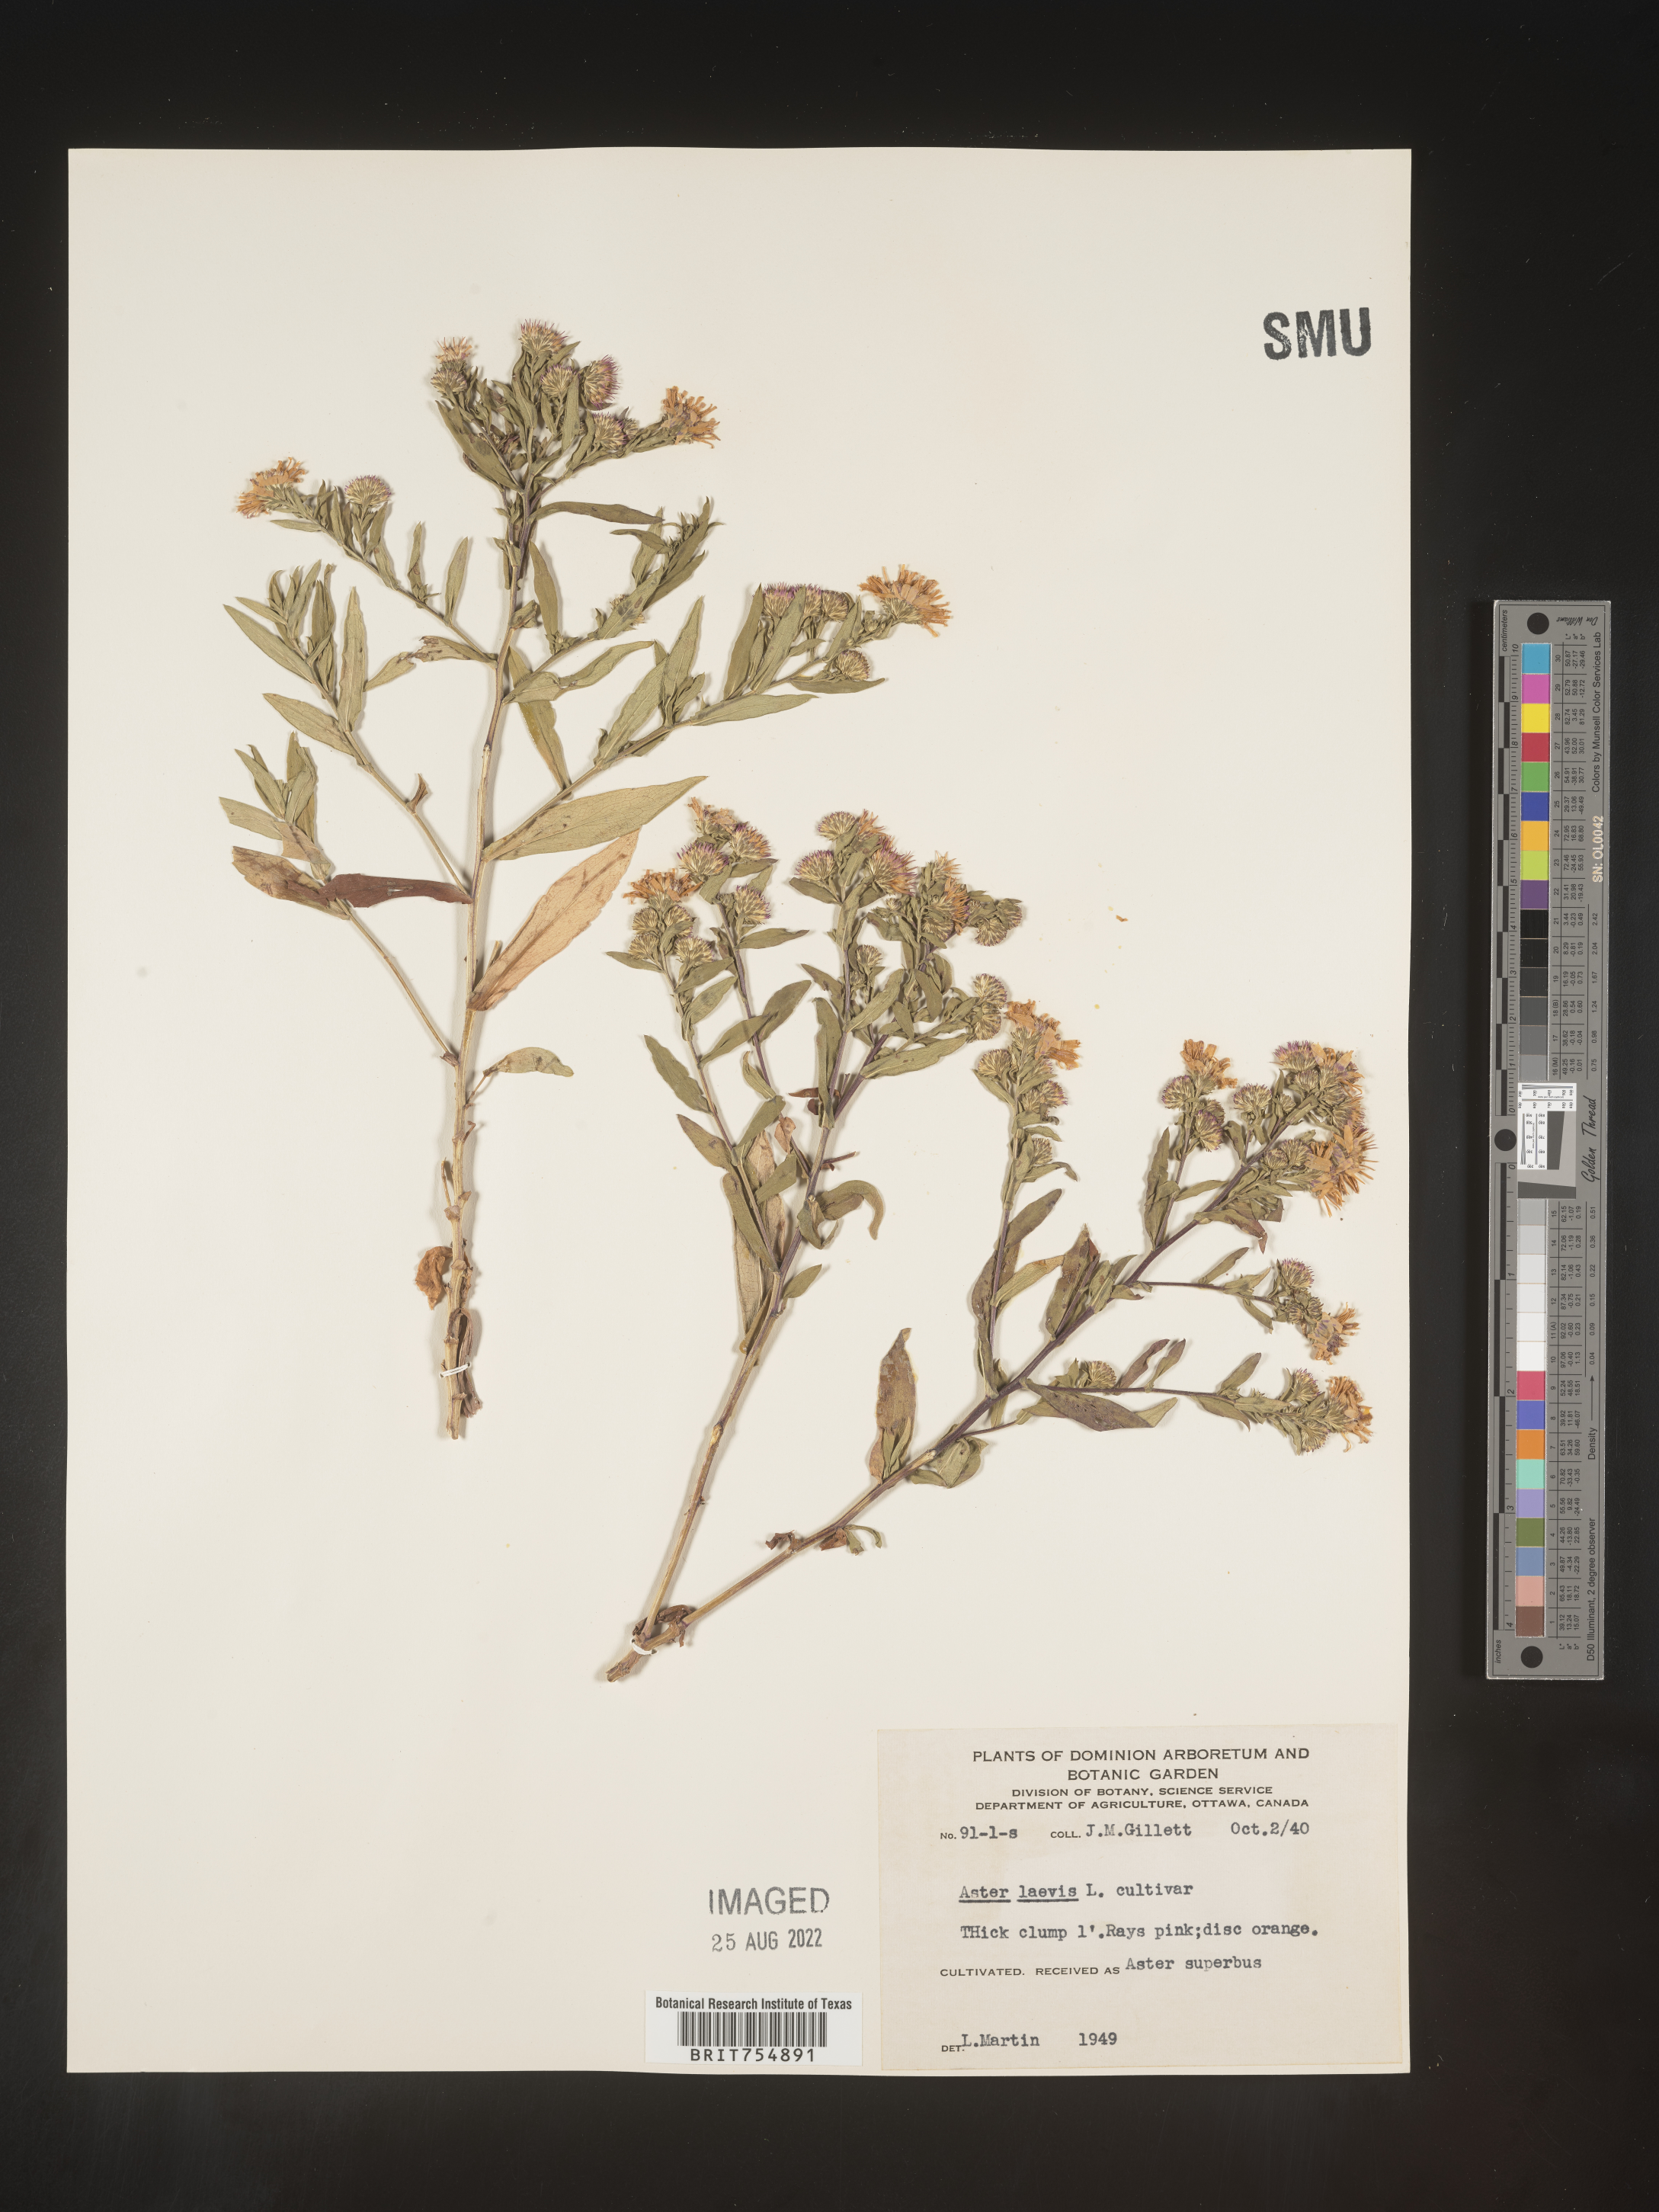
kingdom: Plantae
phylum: Tracheophyta
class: Magnoliopsida
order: Asterales
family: Asteraceae
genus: Symphyotrichum
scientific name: Symphyotrichum
